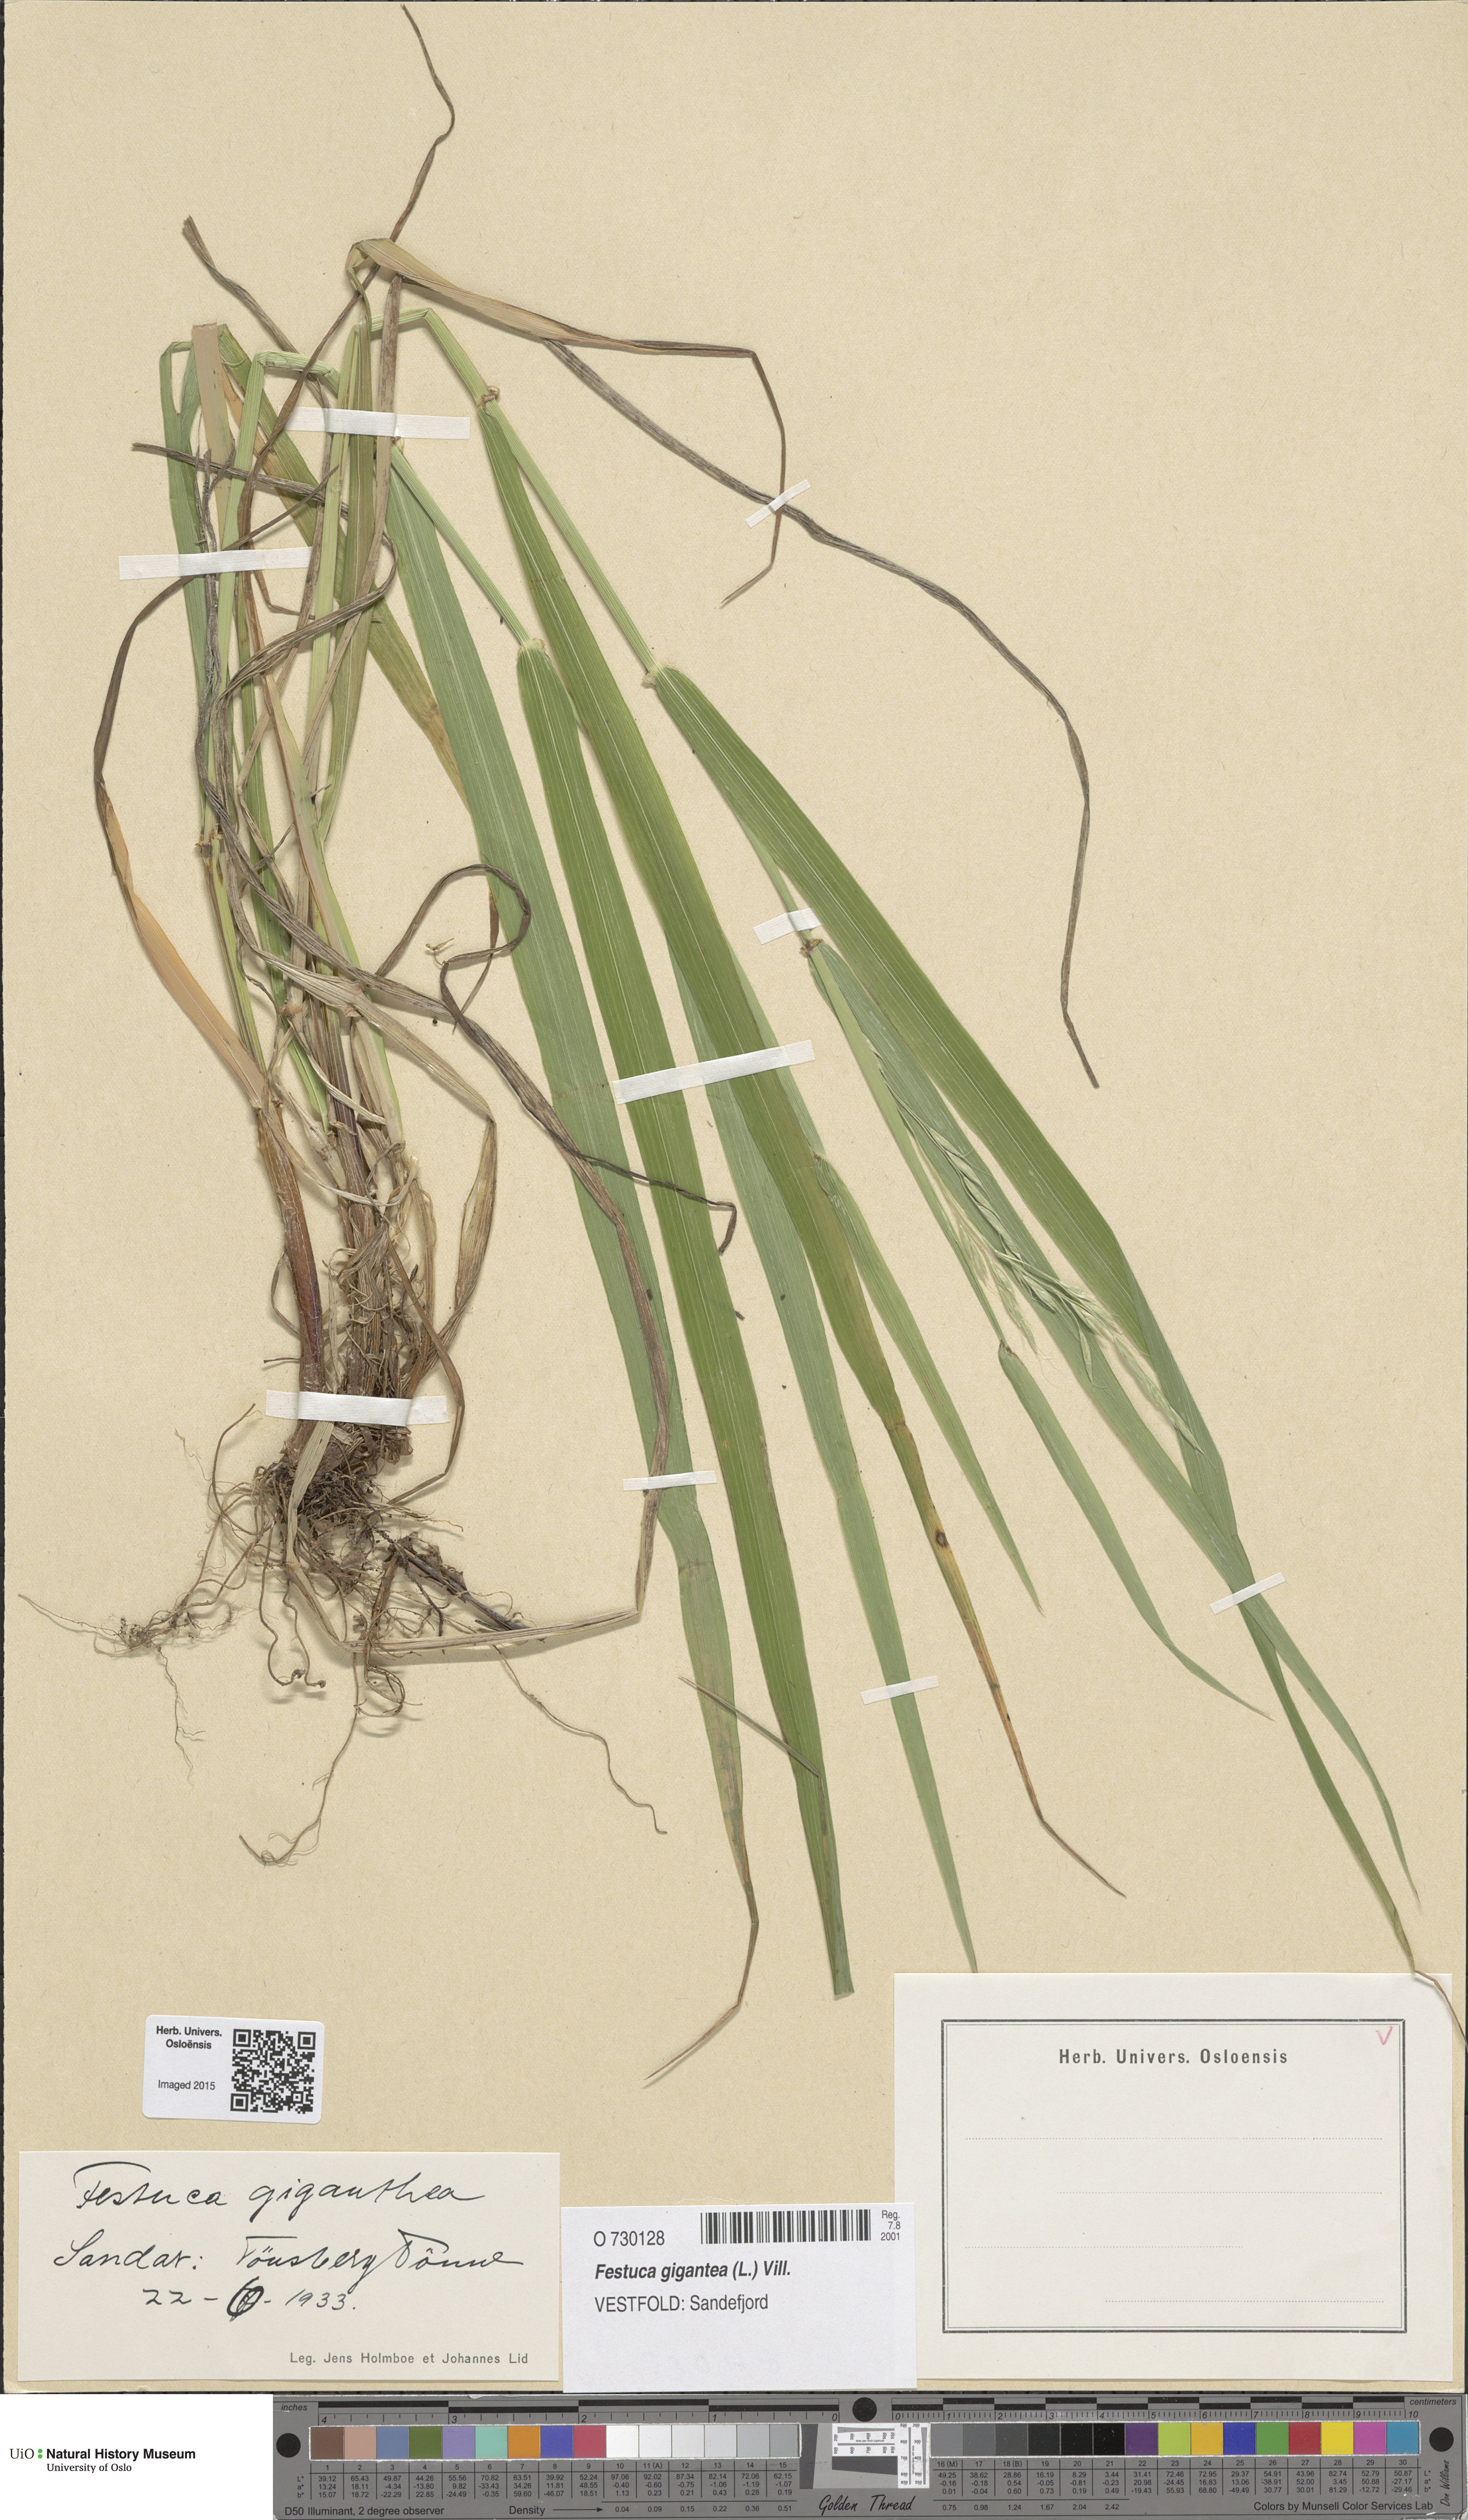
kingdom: Plantae
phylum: Tracheophyta
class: Liliopsida
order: Poales
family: Poaceae
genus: Lolium
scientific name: Lolium giganteum
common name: Giant fescue
